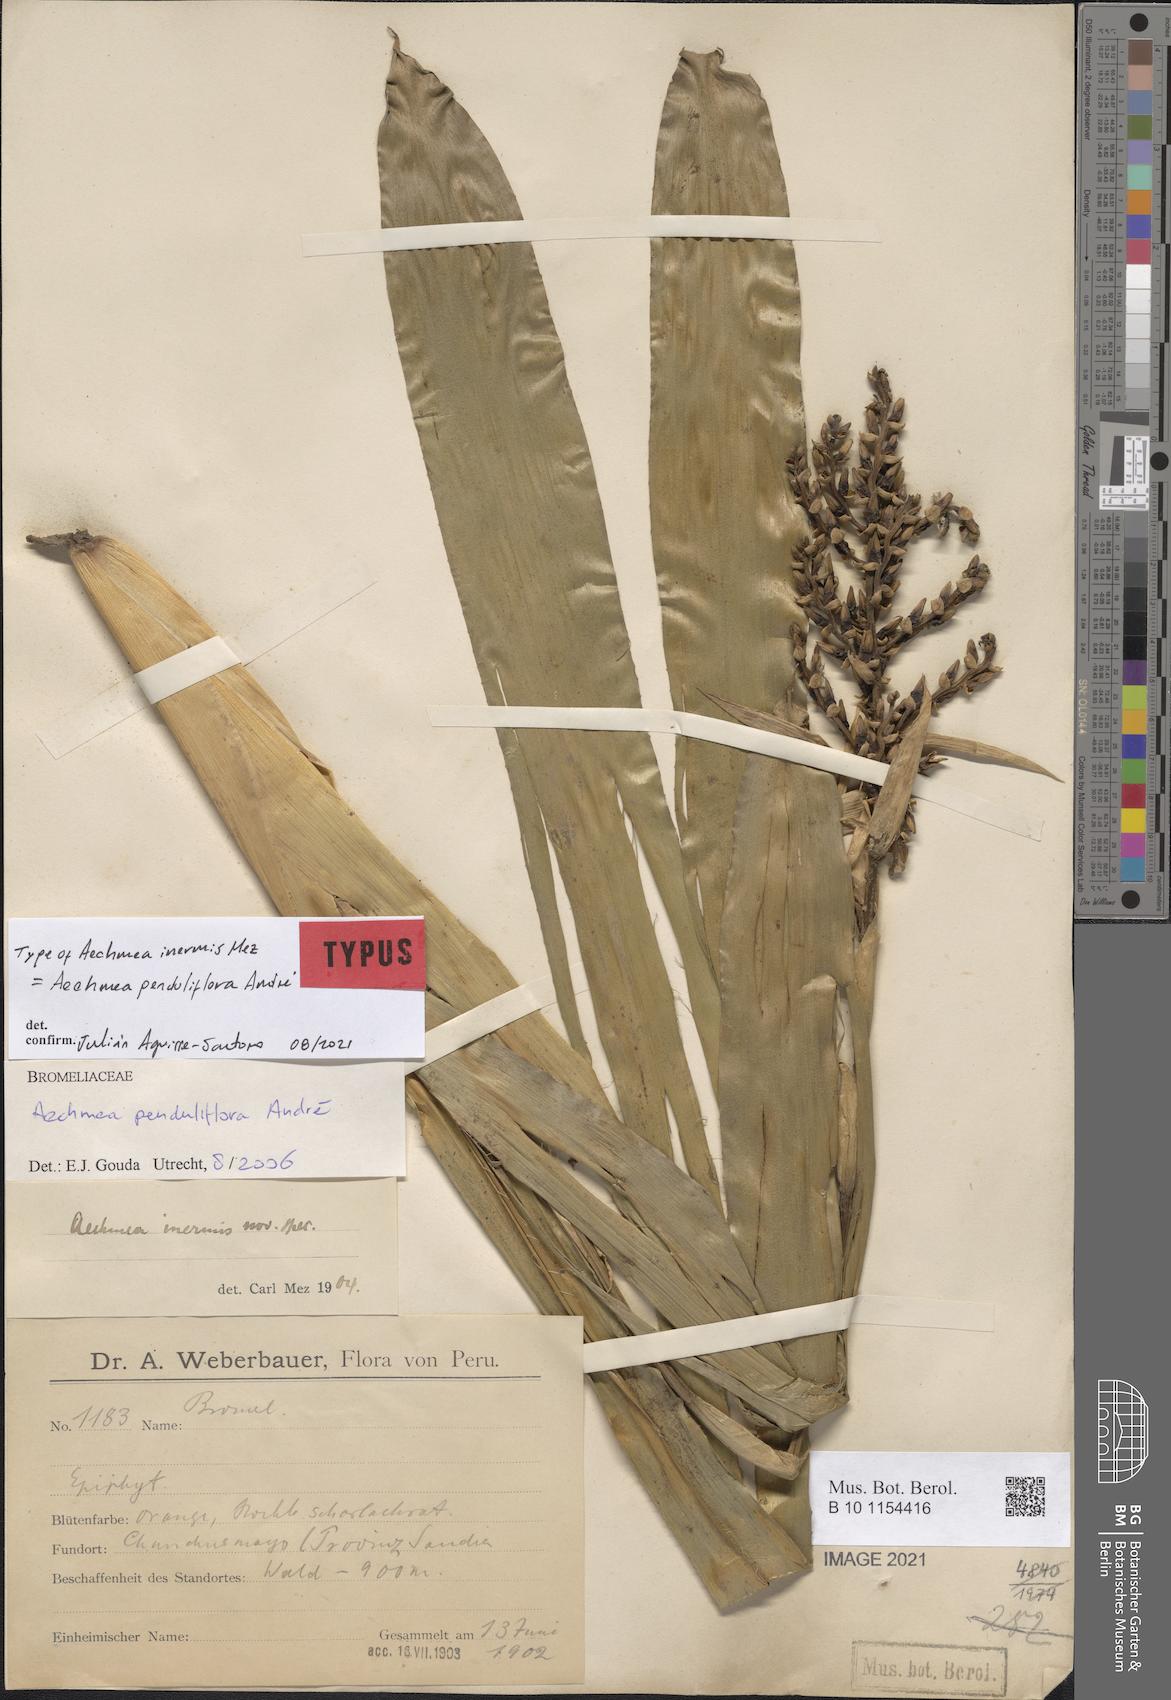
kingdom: Plantae
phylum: Tracheophyta
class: Liliopsida
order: Poales
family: Bromeliaceae
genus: Aechmea
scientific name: Aechmea penduliflora
